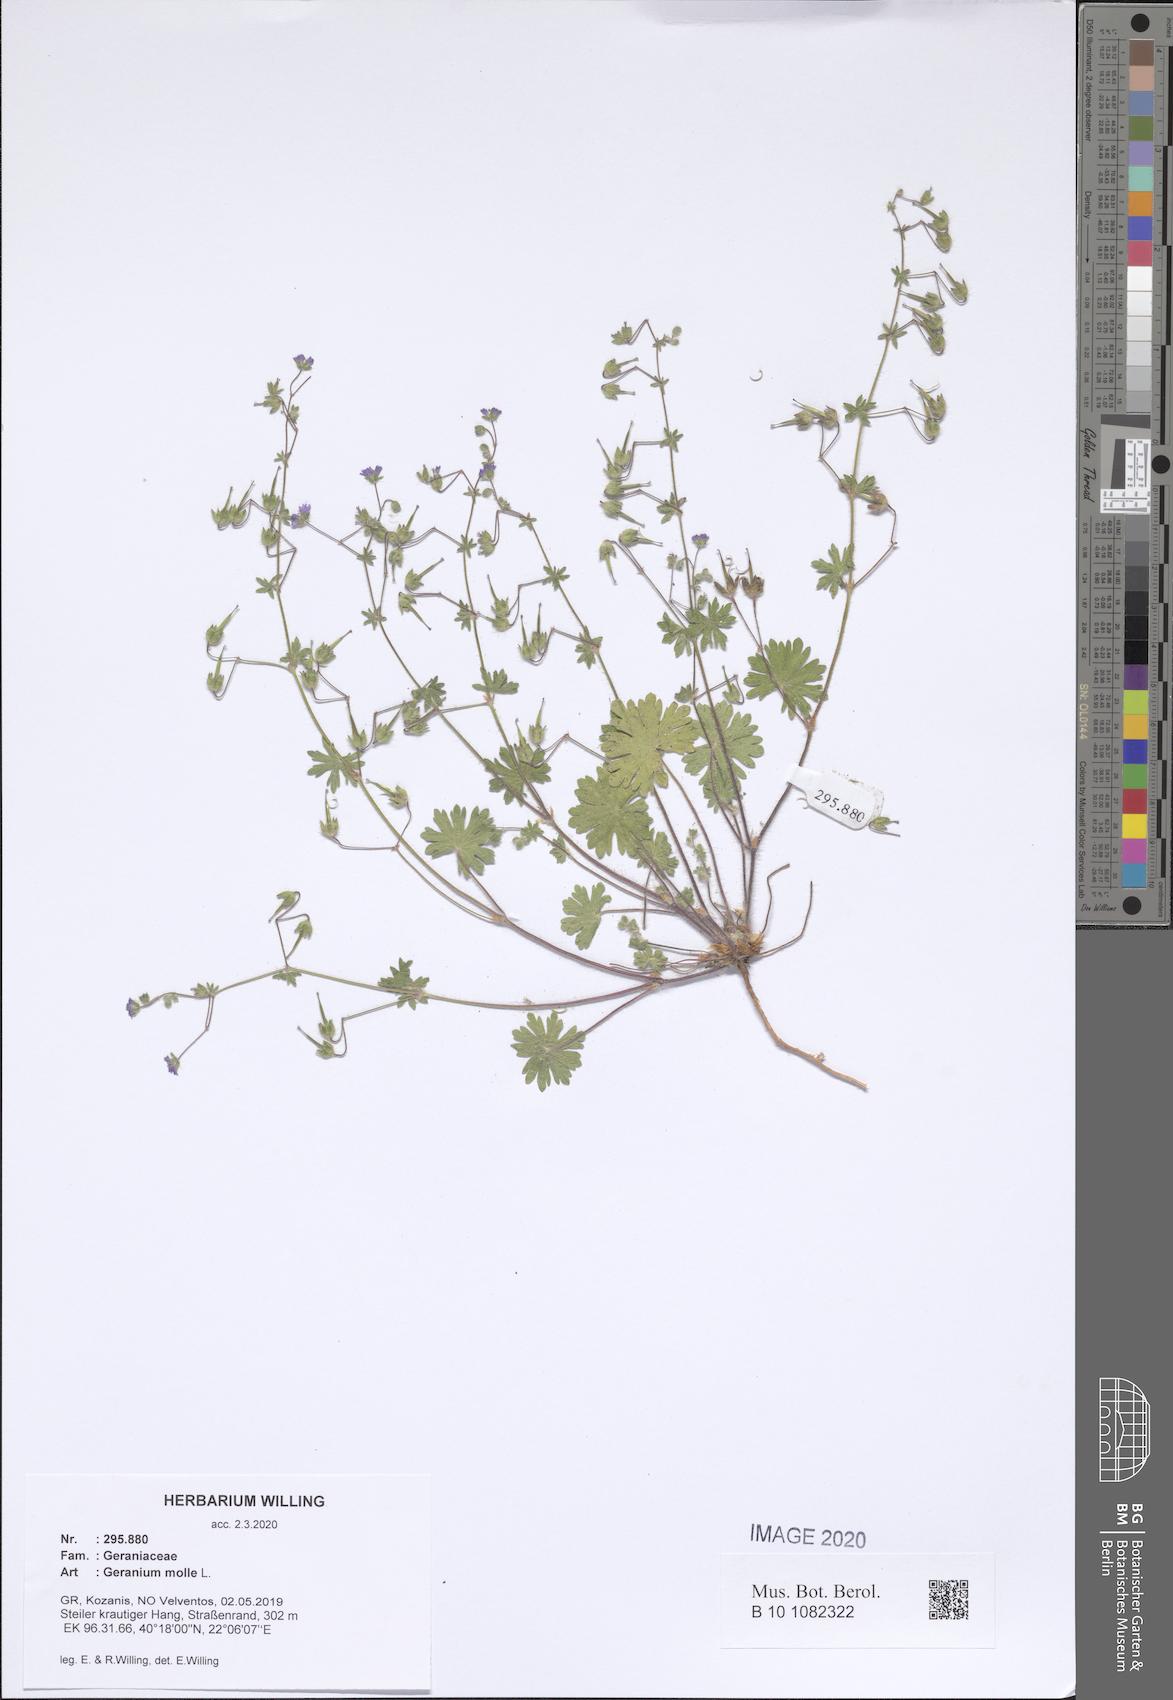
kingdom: Plantae
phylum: Tracheophyta
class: Magnoliopsida
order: Geraniales
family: Geraniaceae
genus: Geranium
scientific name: Geranium molle
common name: Dove's-foot crane's-bill
